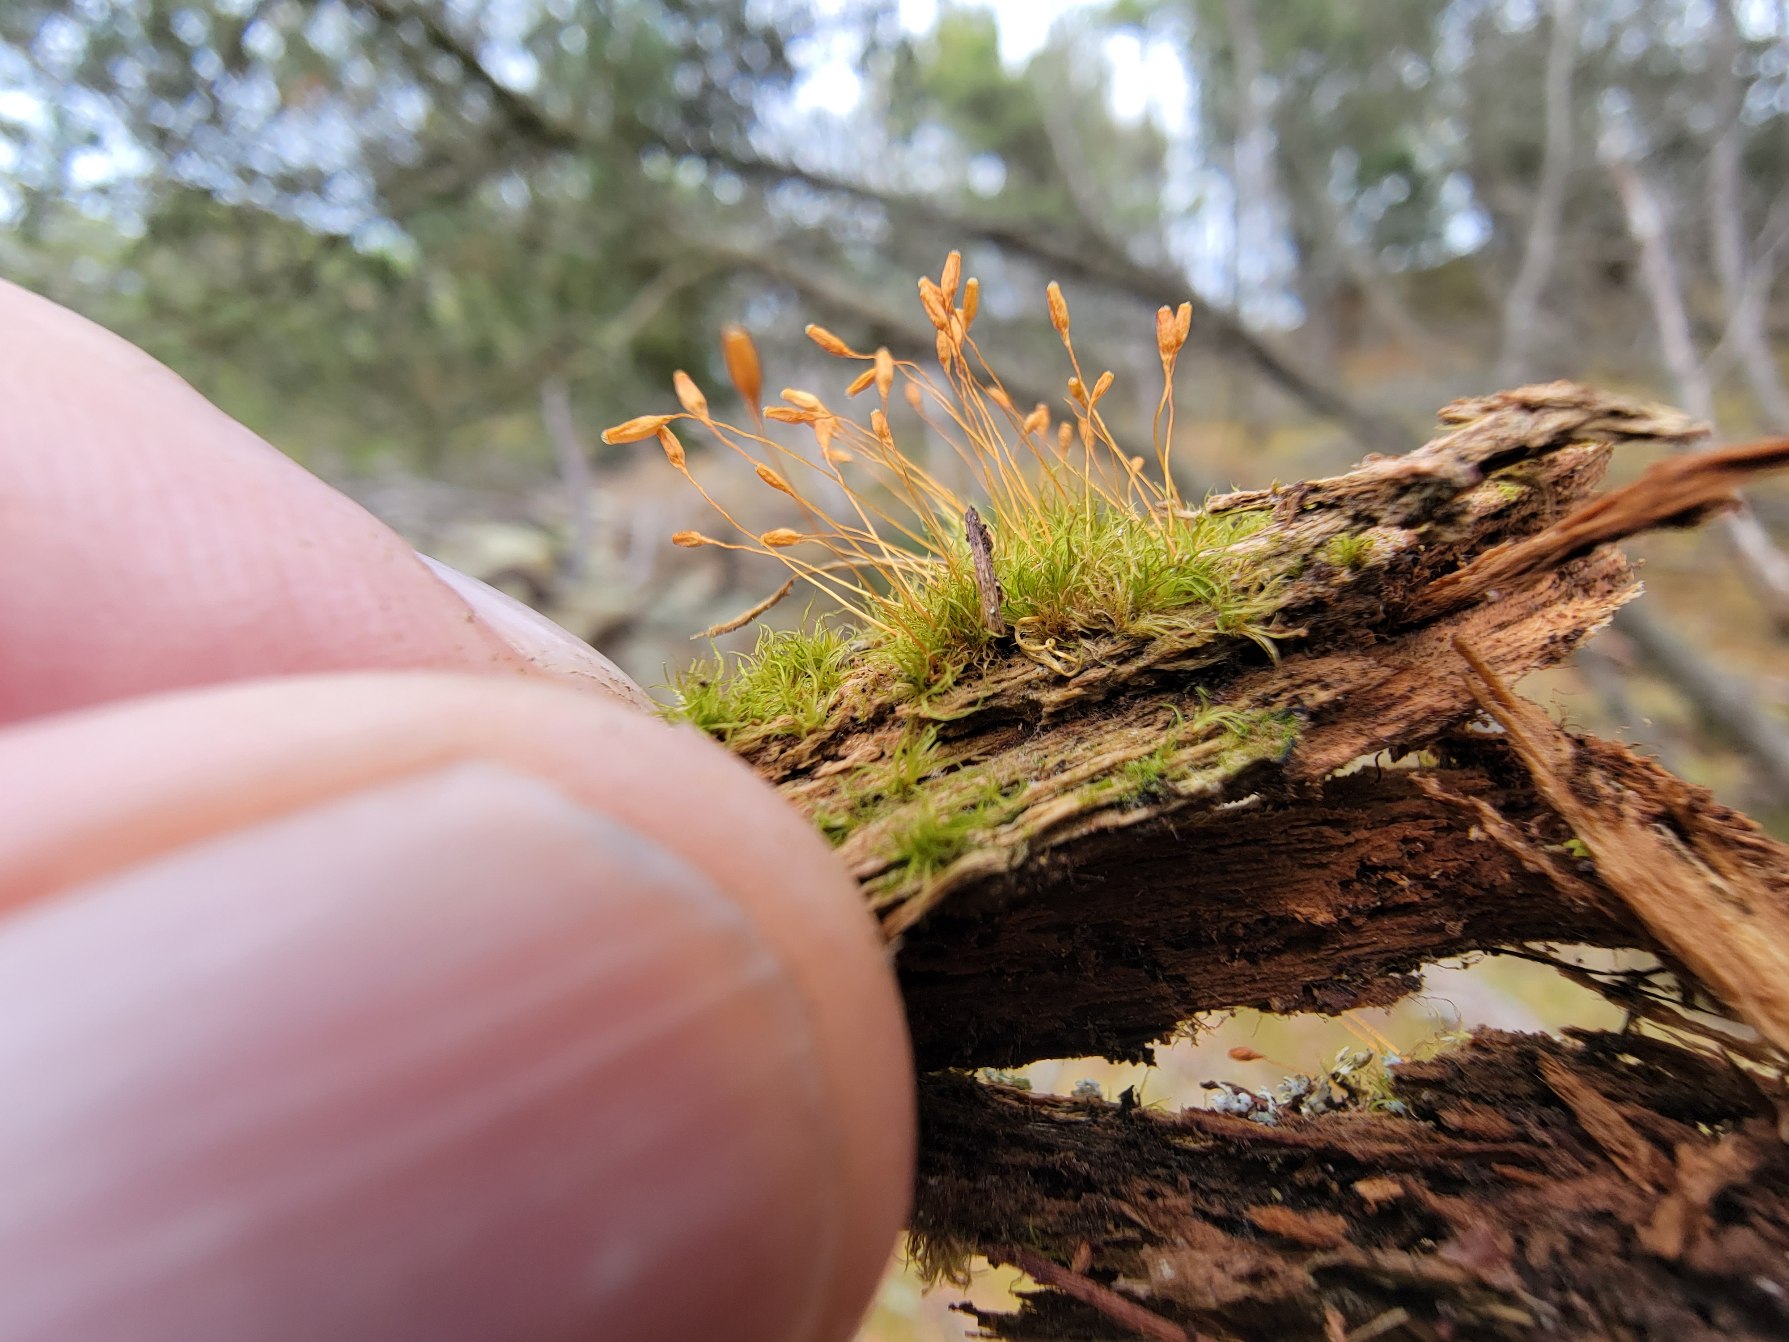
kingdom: Plantae
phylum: Bryophyta
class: Bryopsida
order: Orthodontiales
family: Orthodontiaceae
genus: Orthodontium
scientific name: Orthodontium lineare
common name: Smalbladet plysmos
